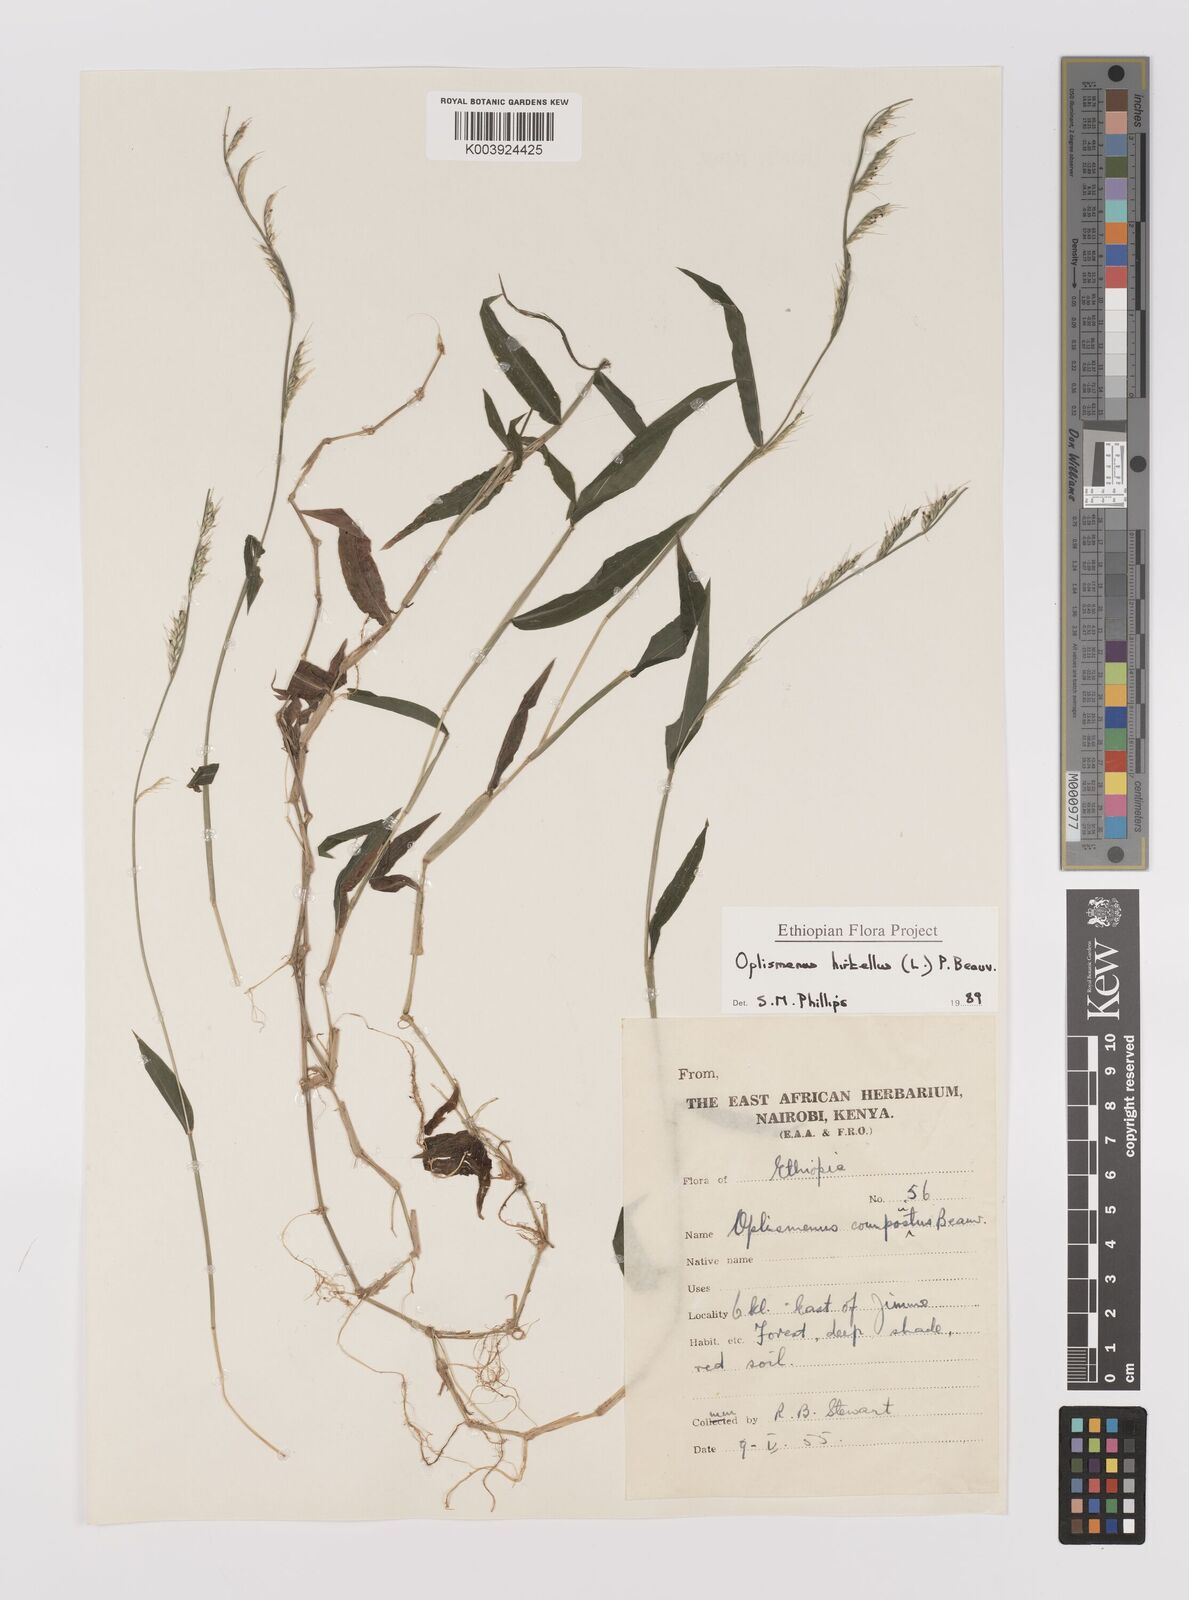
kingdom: Plantae
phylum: Tracheophyta
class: Liliopsida
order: Poales
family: Poaceae
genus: Oplismenus
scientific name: Oplismenus hirtellus
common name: Basketgrass
